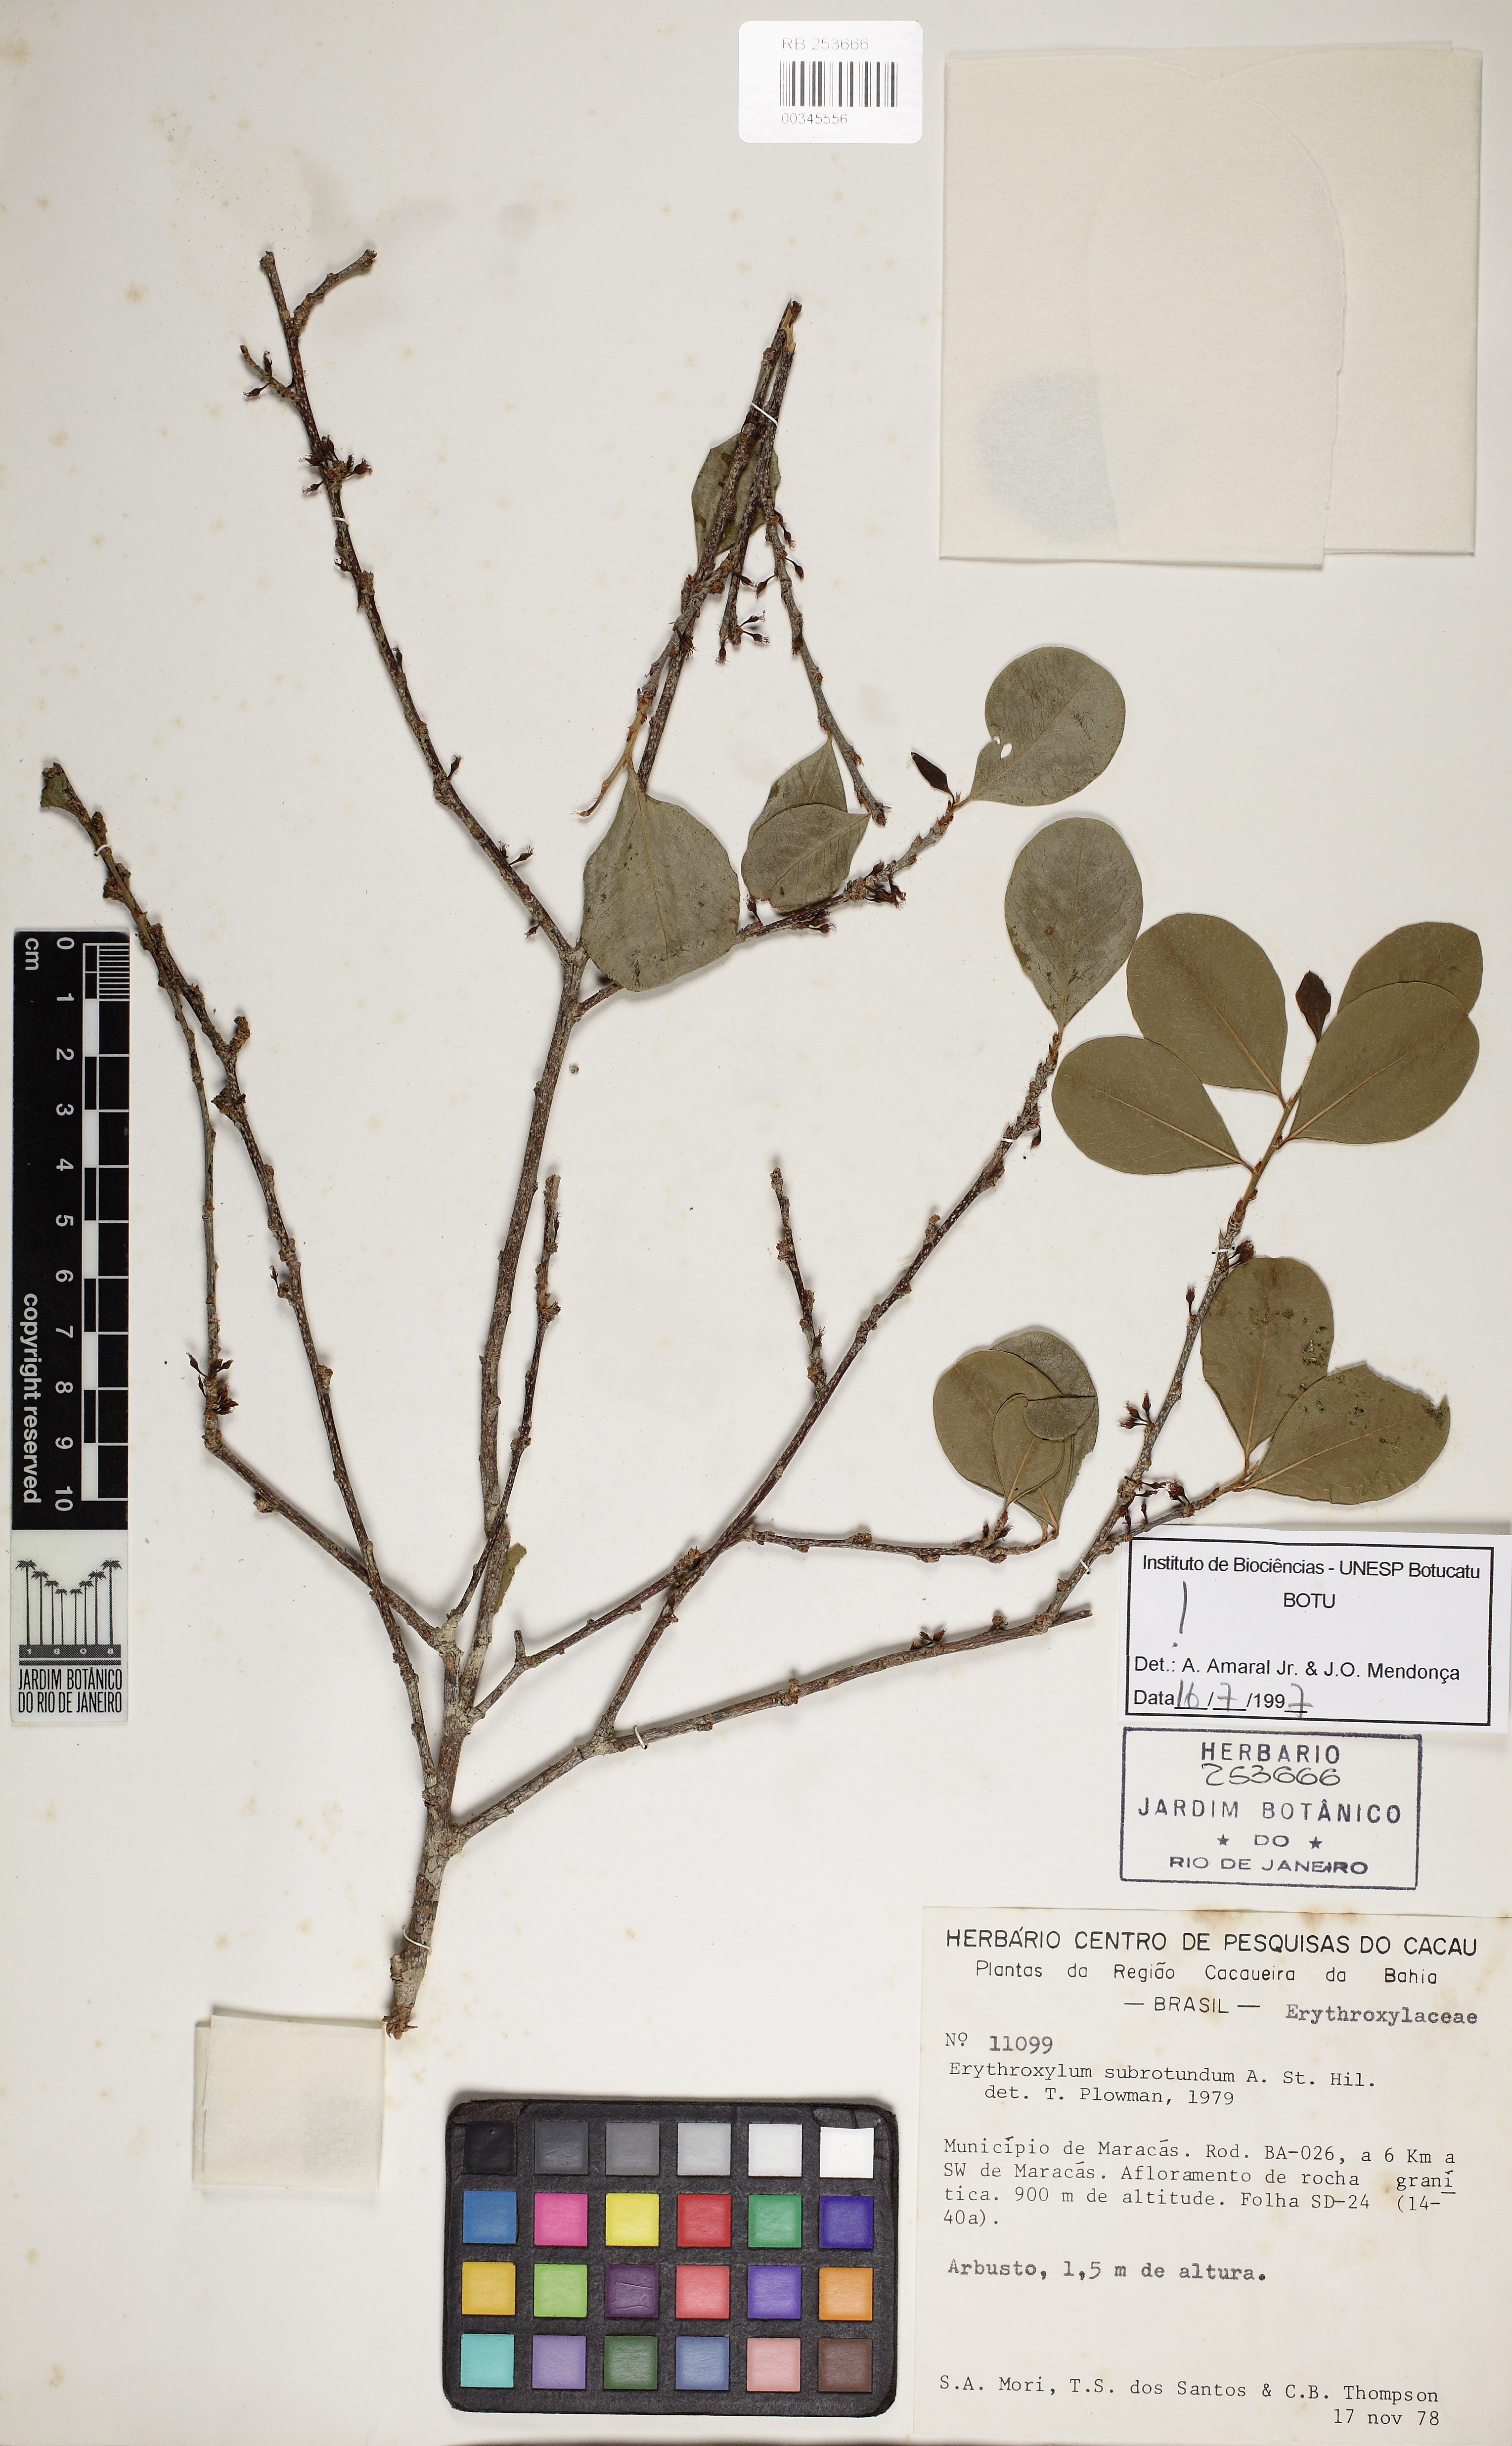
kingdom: Plantae
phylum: Tracheophyta
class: Magnoliopsida
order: Malpighiales
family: Erythroxylaceae
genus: Erythroxylum
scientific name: Erythroxylum subrotundum
